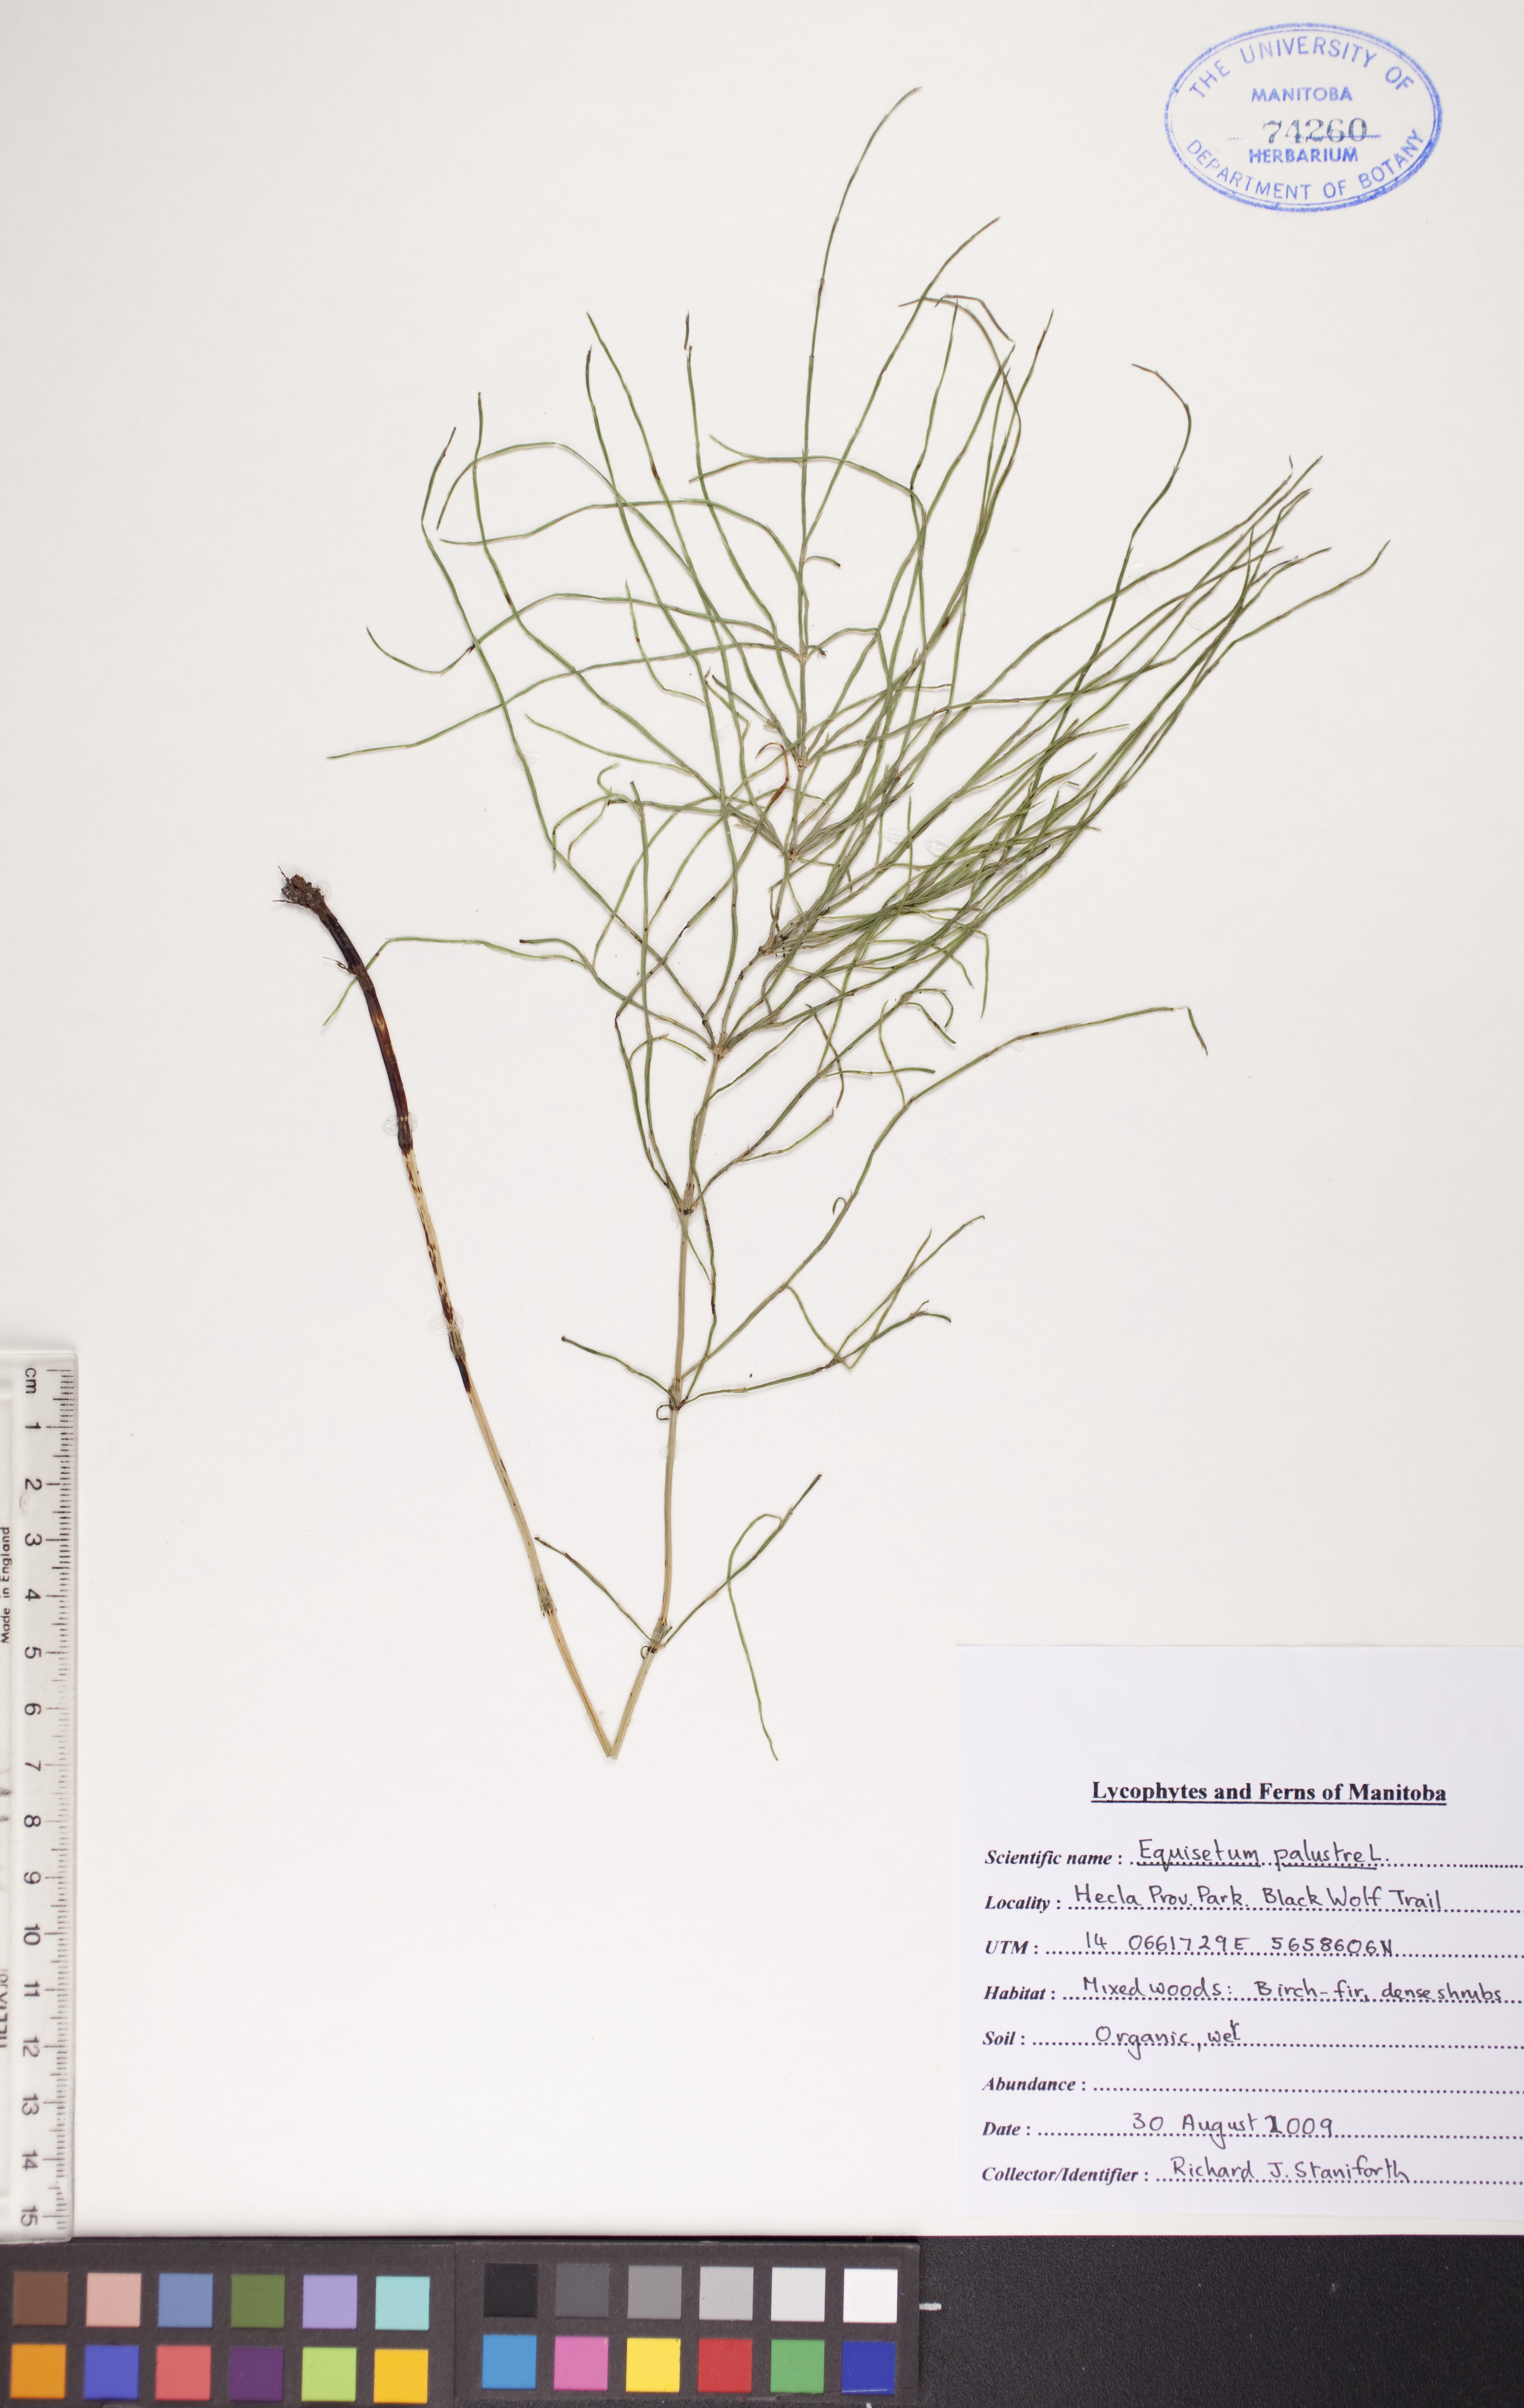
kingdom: Plantae
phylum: Tracheophyta
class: Polypodiopsida
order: Equisetales
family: Equisetaceae
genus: Equisetum
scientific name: Equisetum palustre
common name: Marsh horsetail
